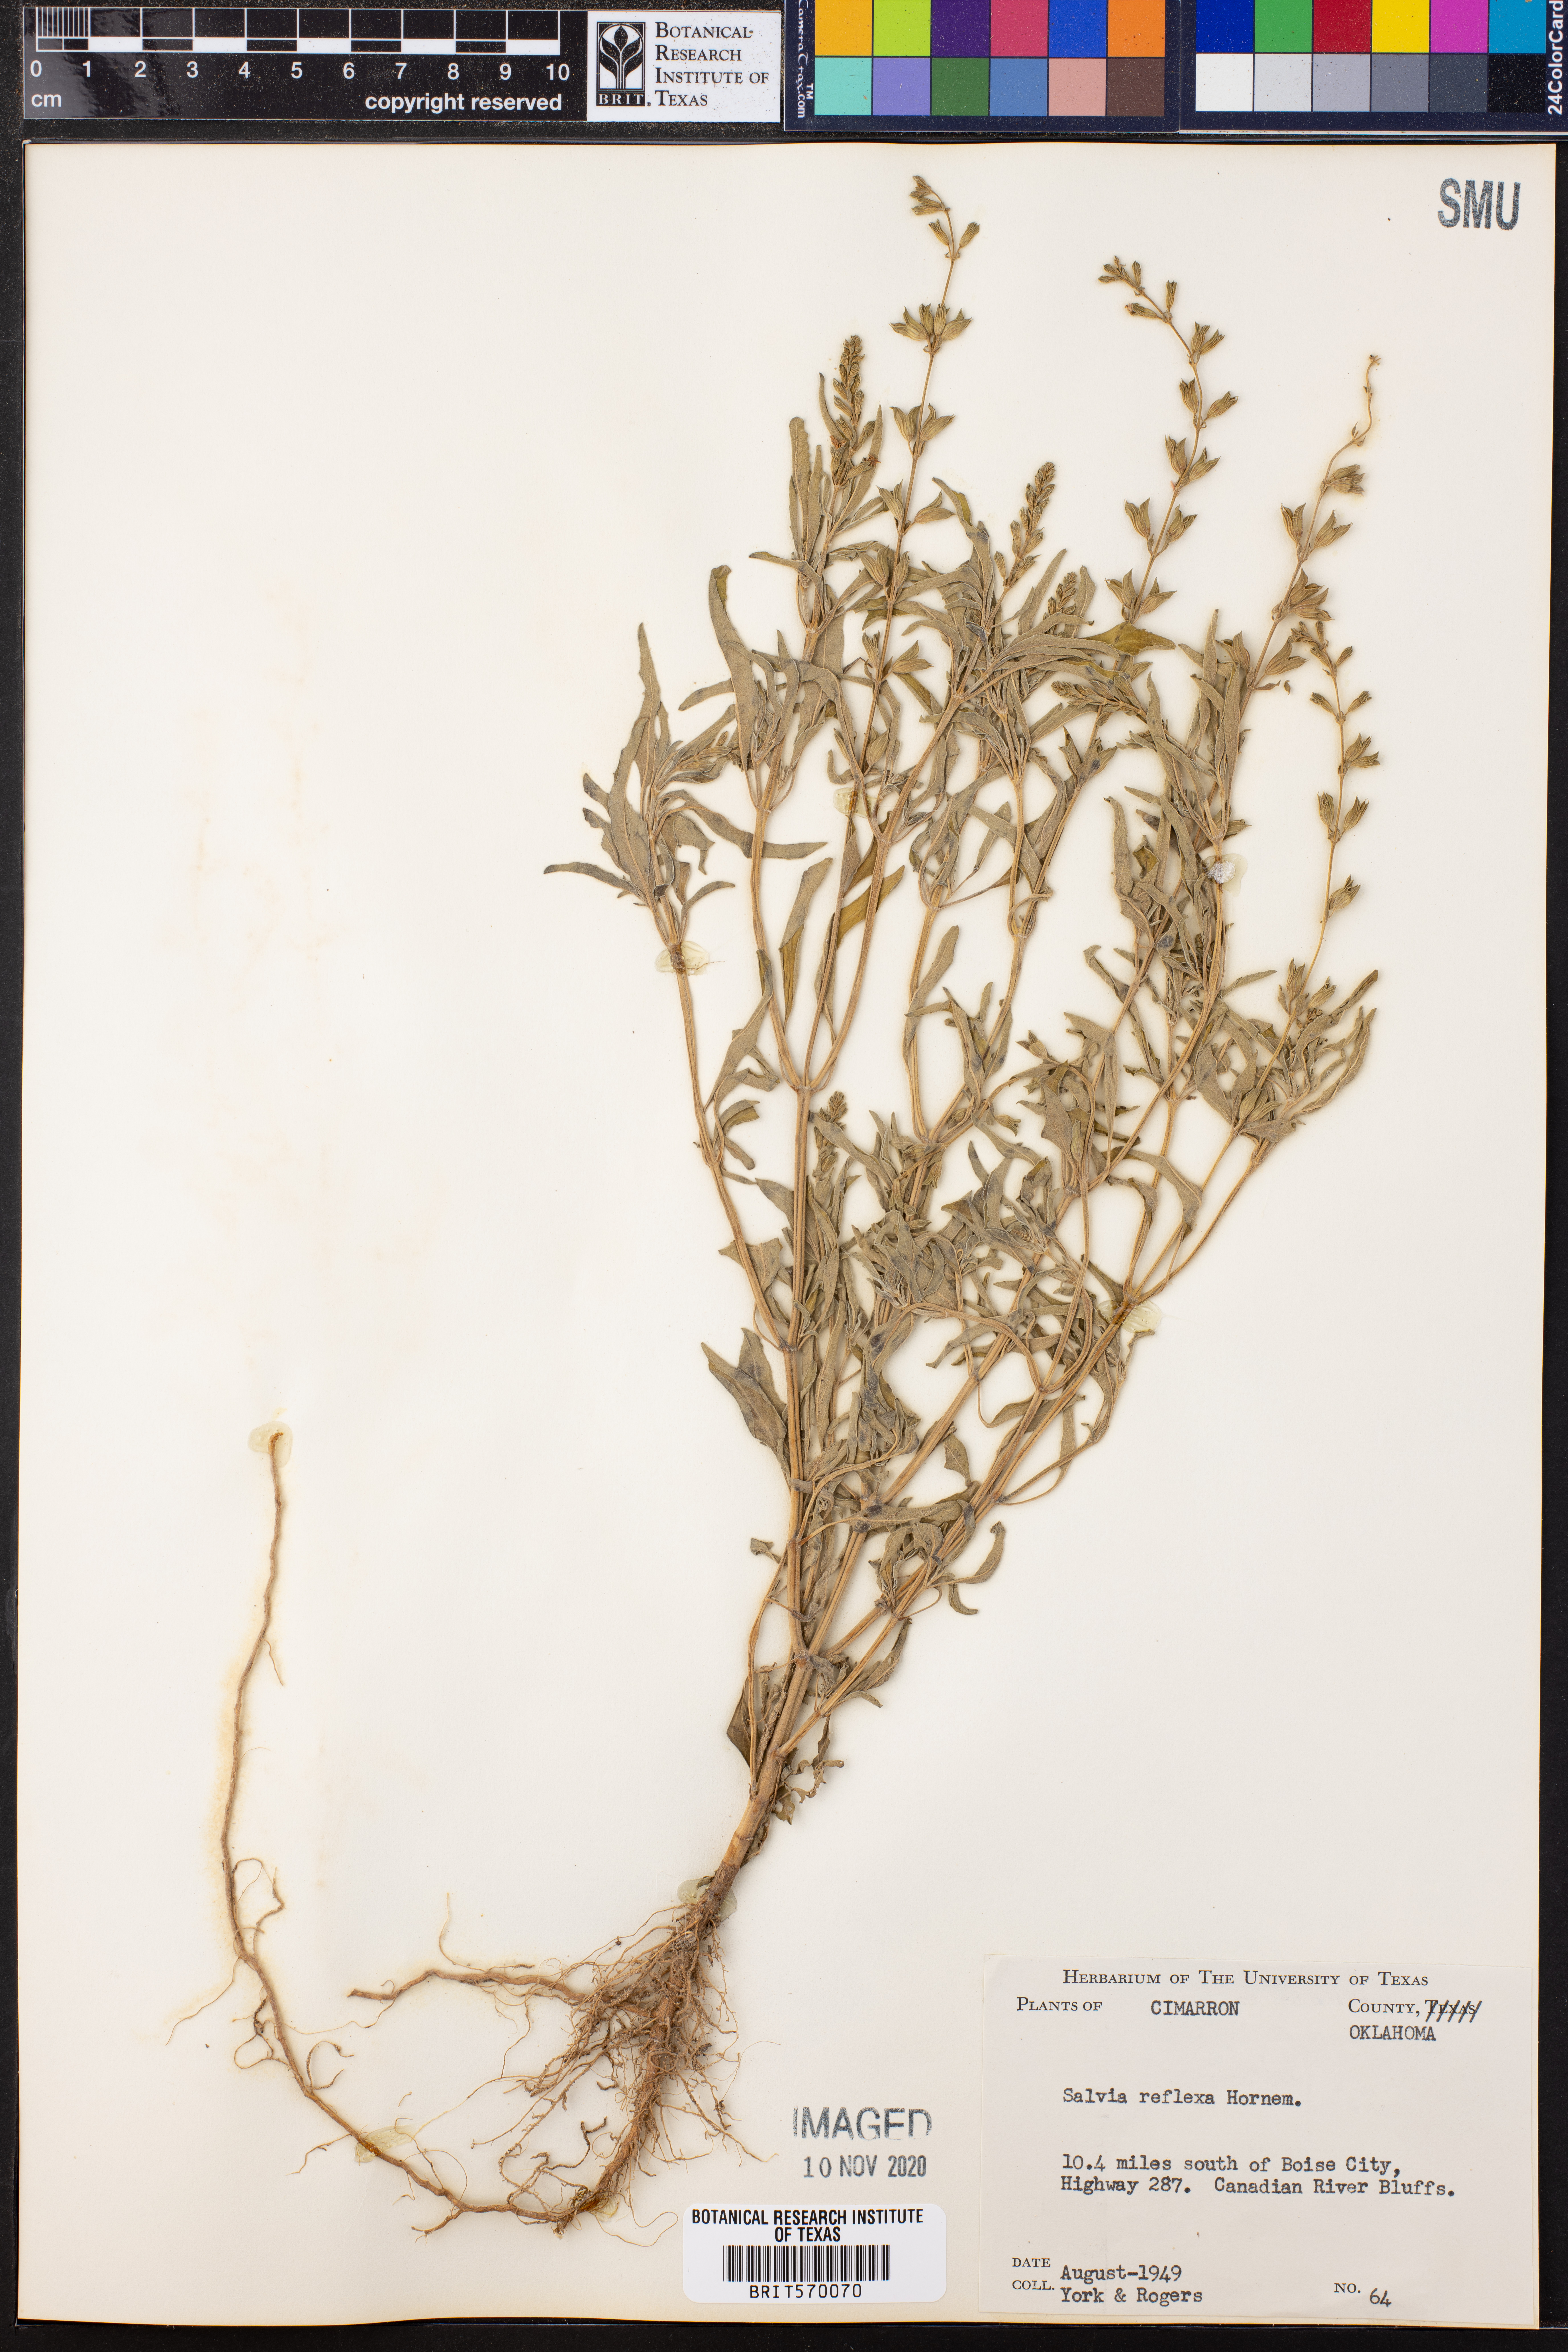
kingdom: Plantae
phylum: Tracheophyta
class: Magnoliopsida
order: Lamiales
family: Lamiaceae
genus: Salvia
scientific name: Salvia reflexa
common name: Mintweed
